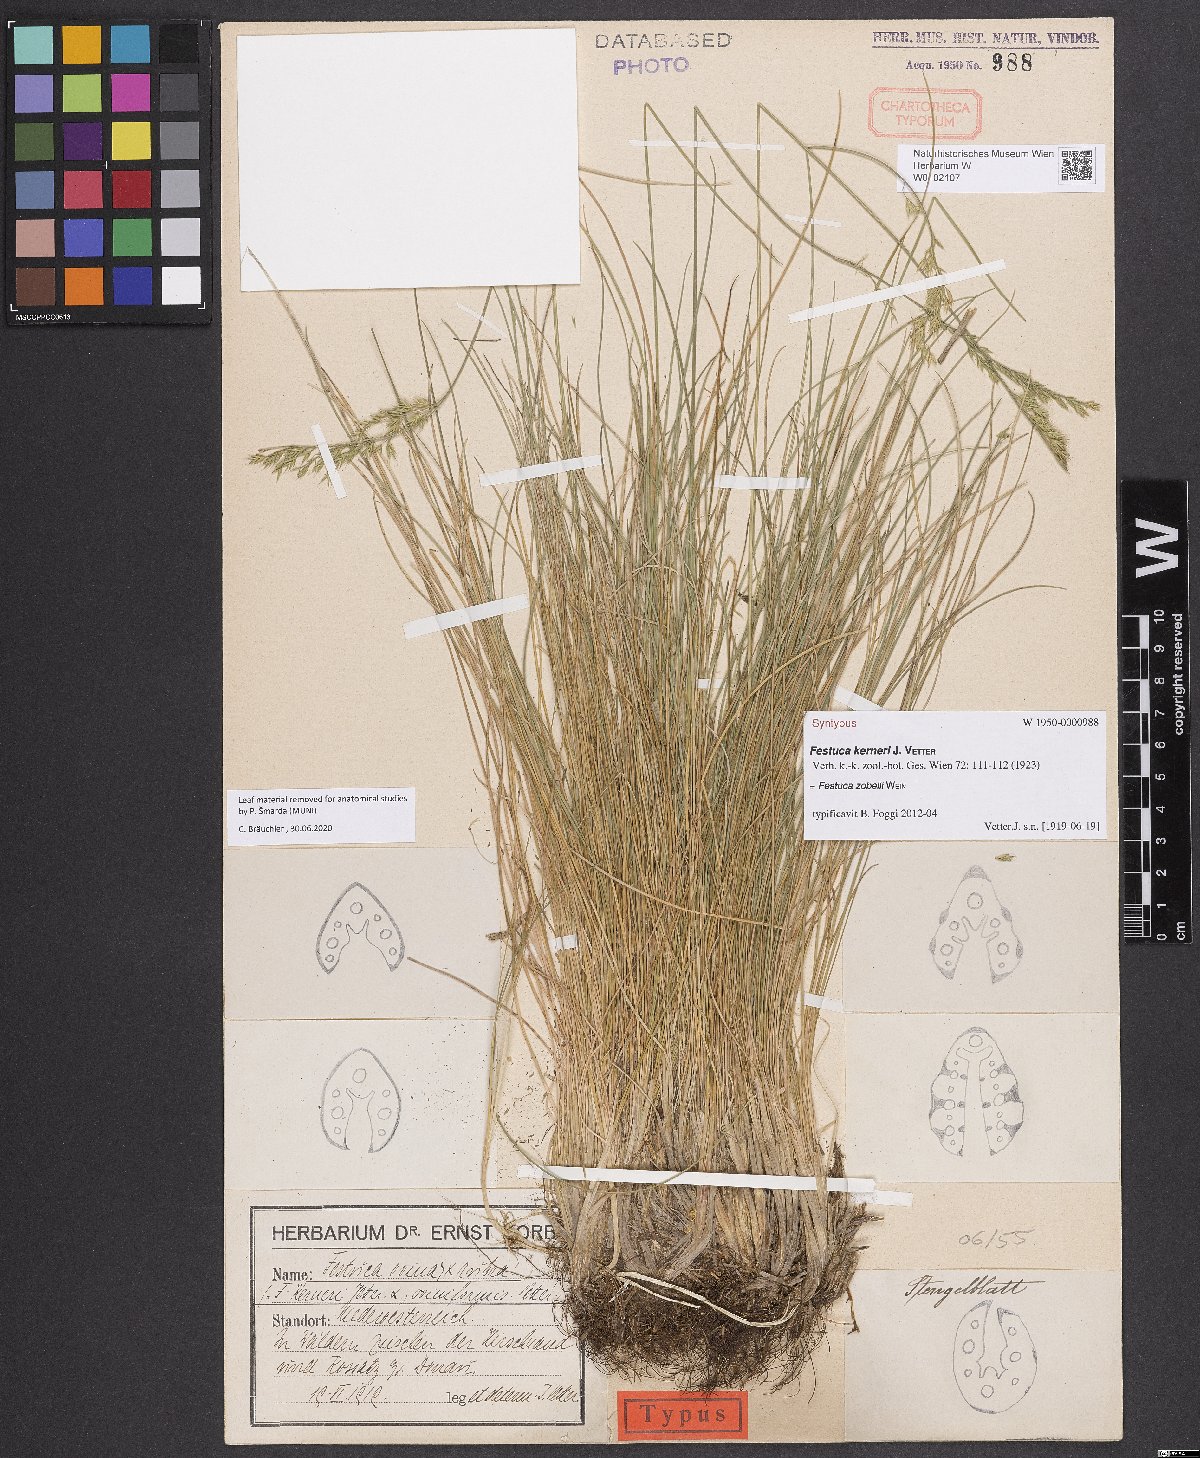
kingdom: Plantae
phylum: Tracheophyta
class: Liliopsida
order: Poales
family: Poaceae
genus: Festuca
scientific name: Festuca zobelii
